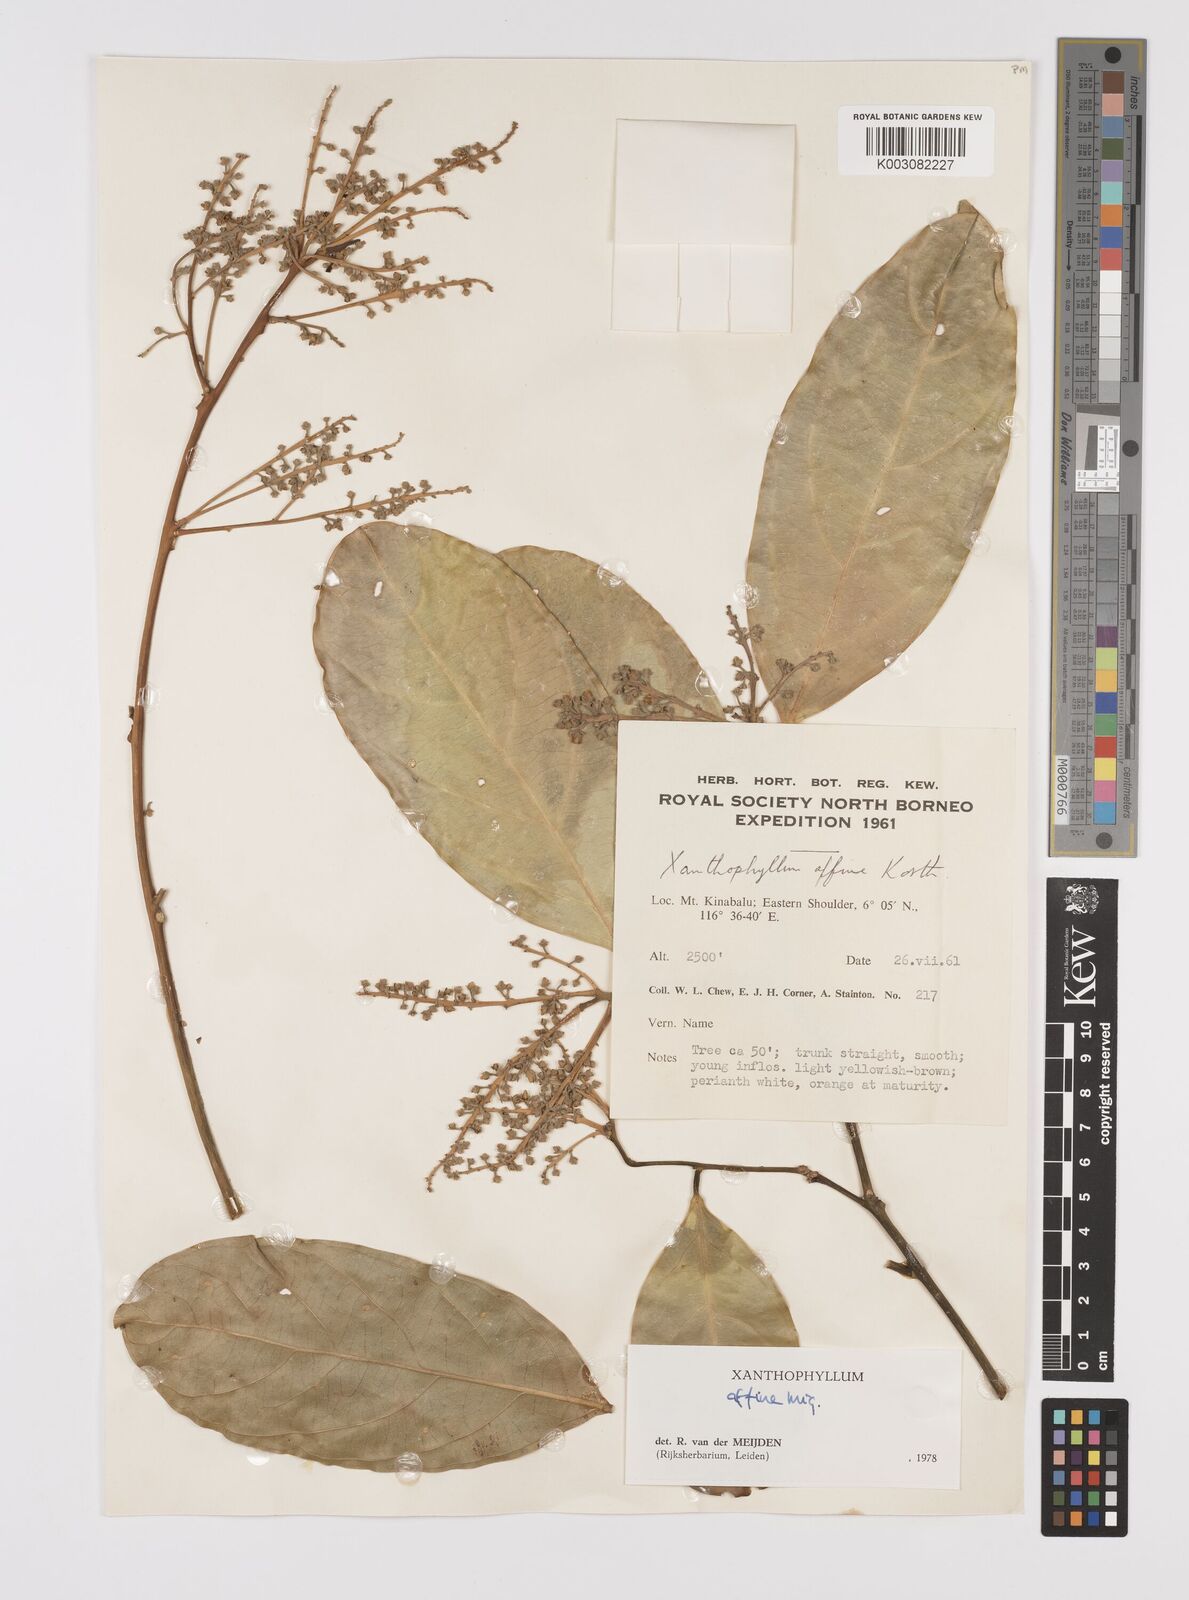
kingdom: Plantae
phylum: Tracheophyta
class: Magnoliopsida
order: Fabales
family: Polygalaceae
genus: Xanthophyllum
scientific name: Xanthophyllum flavescens
